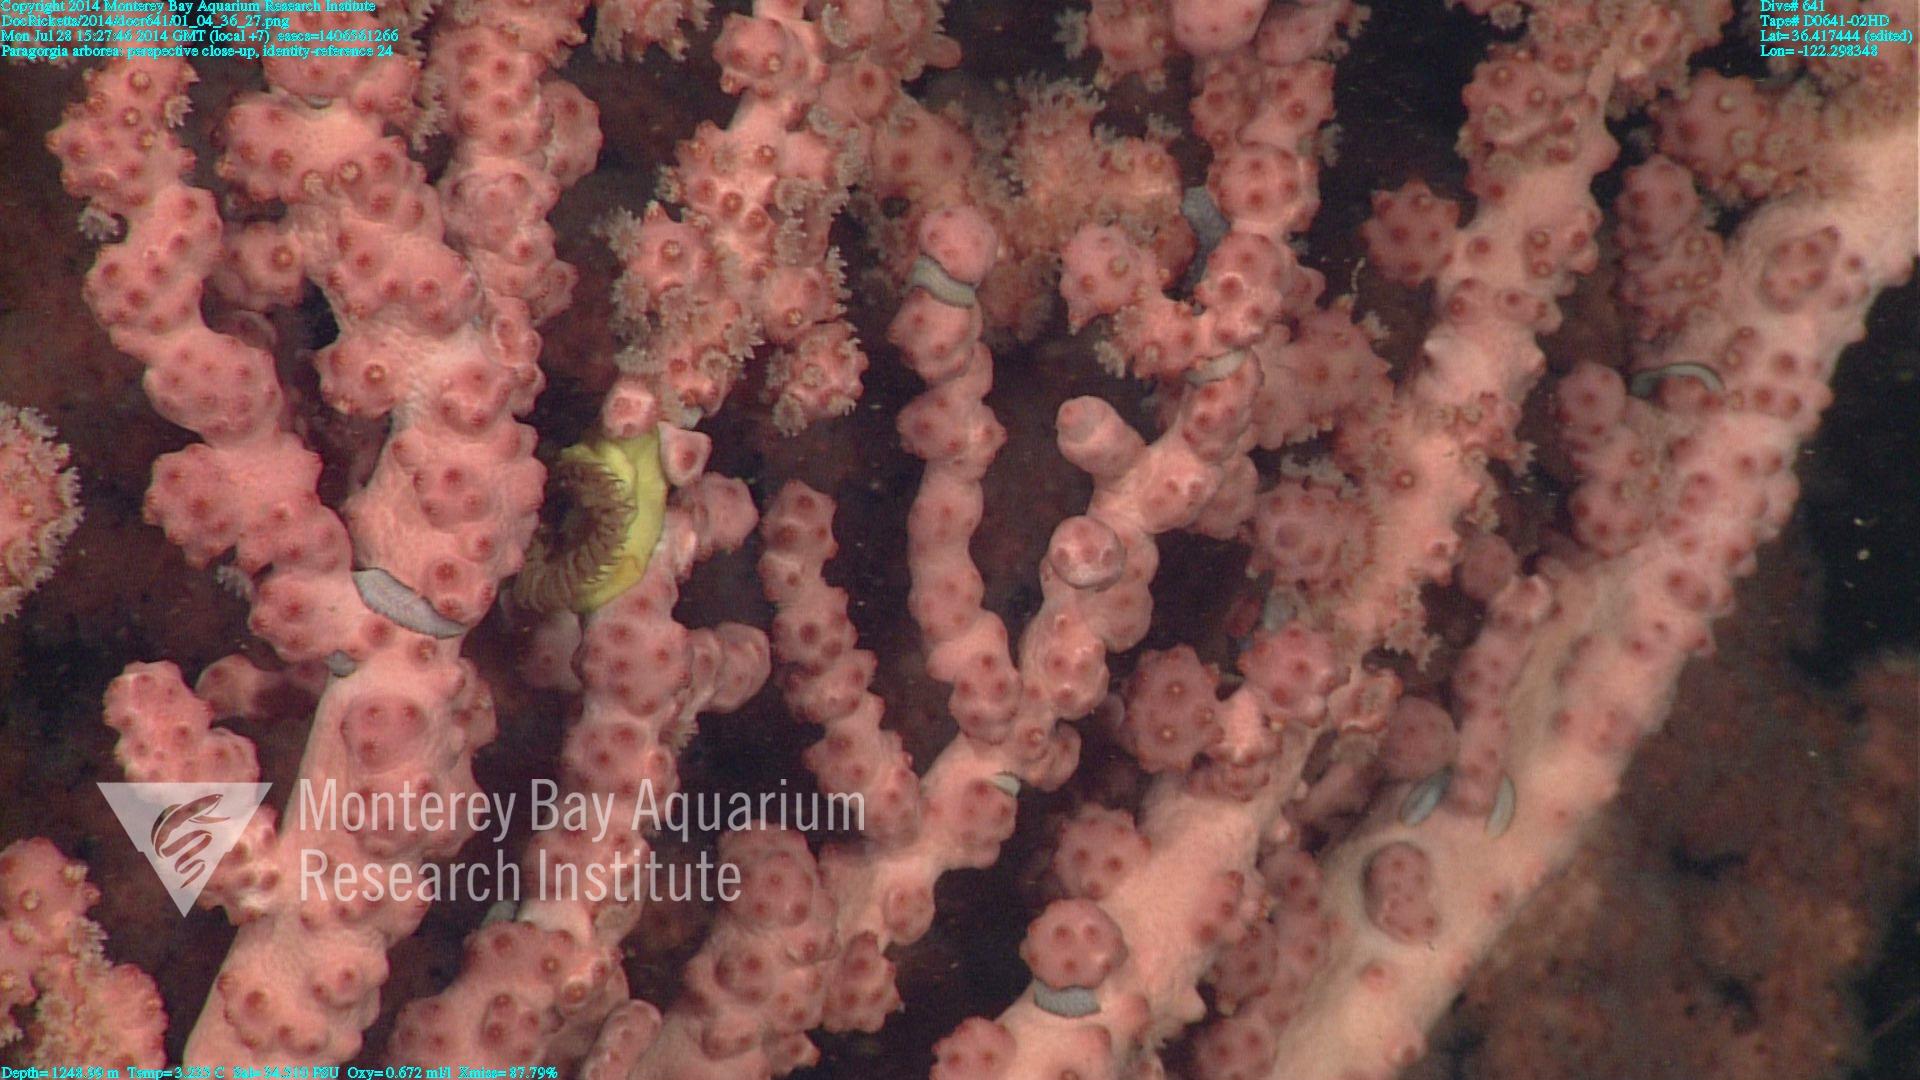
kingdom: Animalia
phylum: Cnidaria
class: Anthozoa
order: Scleralcyonacea
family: Coralliidae
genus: Paragorgia
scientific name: Paragorgia arborea
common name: Bubble gum coral
